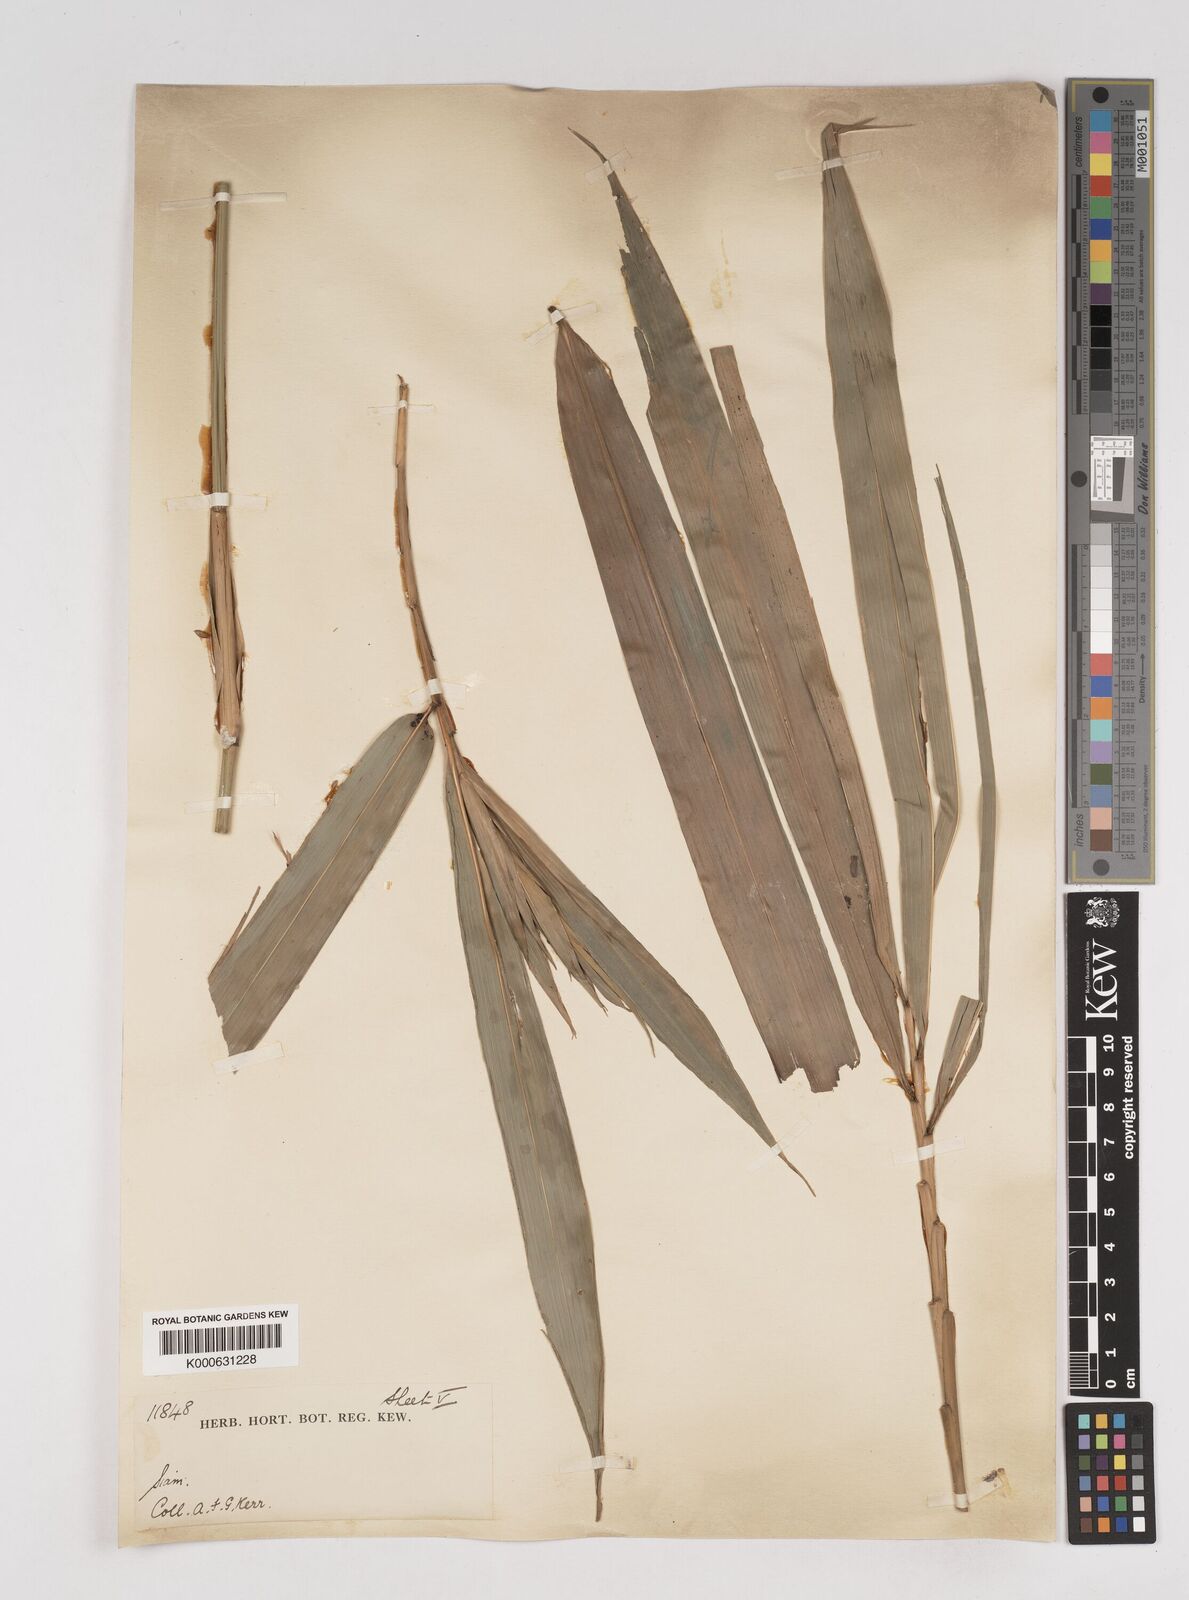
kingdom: Plantae
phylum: Tracheophyta
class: Liliopsida
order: Poales
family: Poaceae
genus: Gigantochloa
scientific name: Gigantochloa
